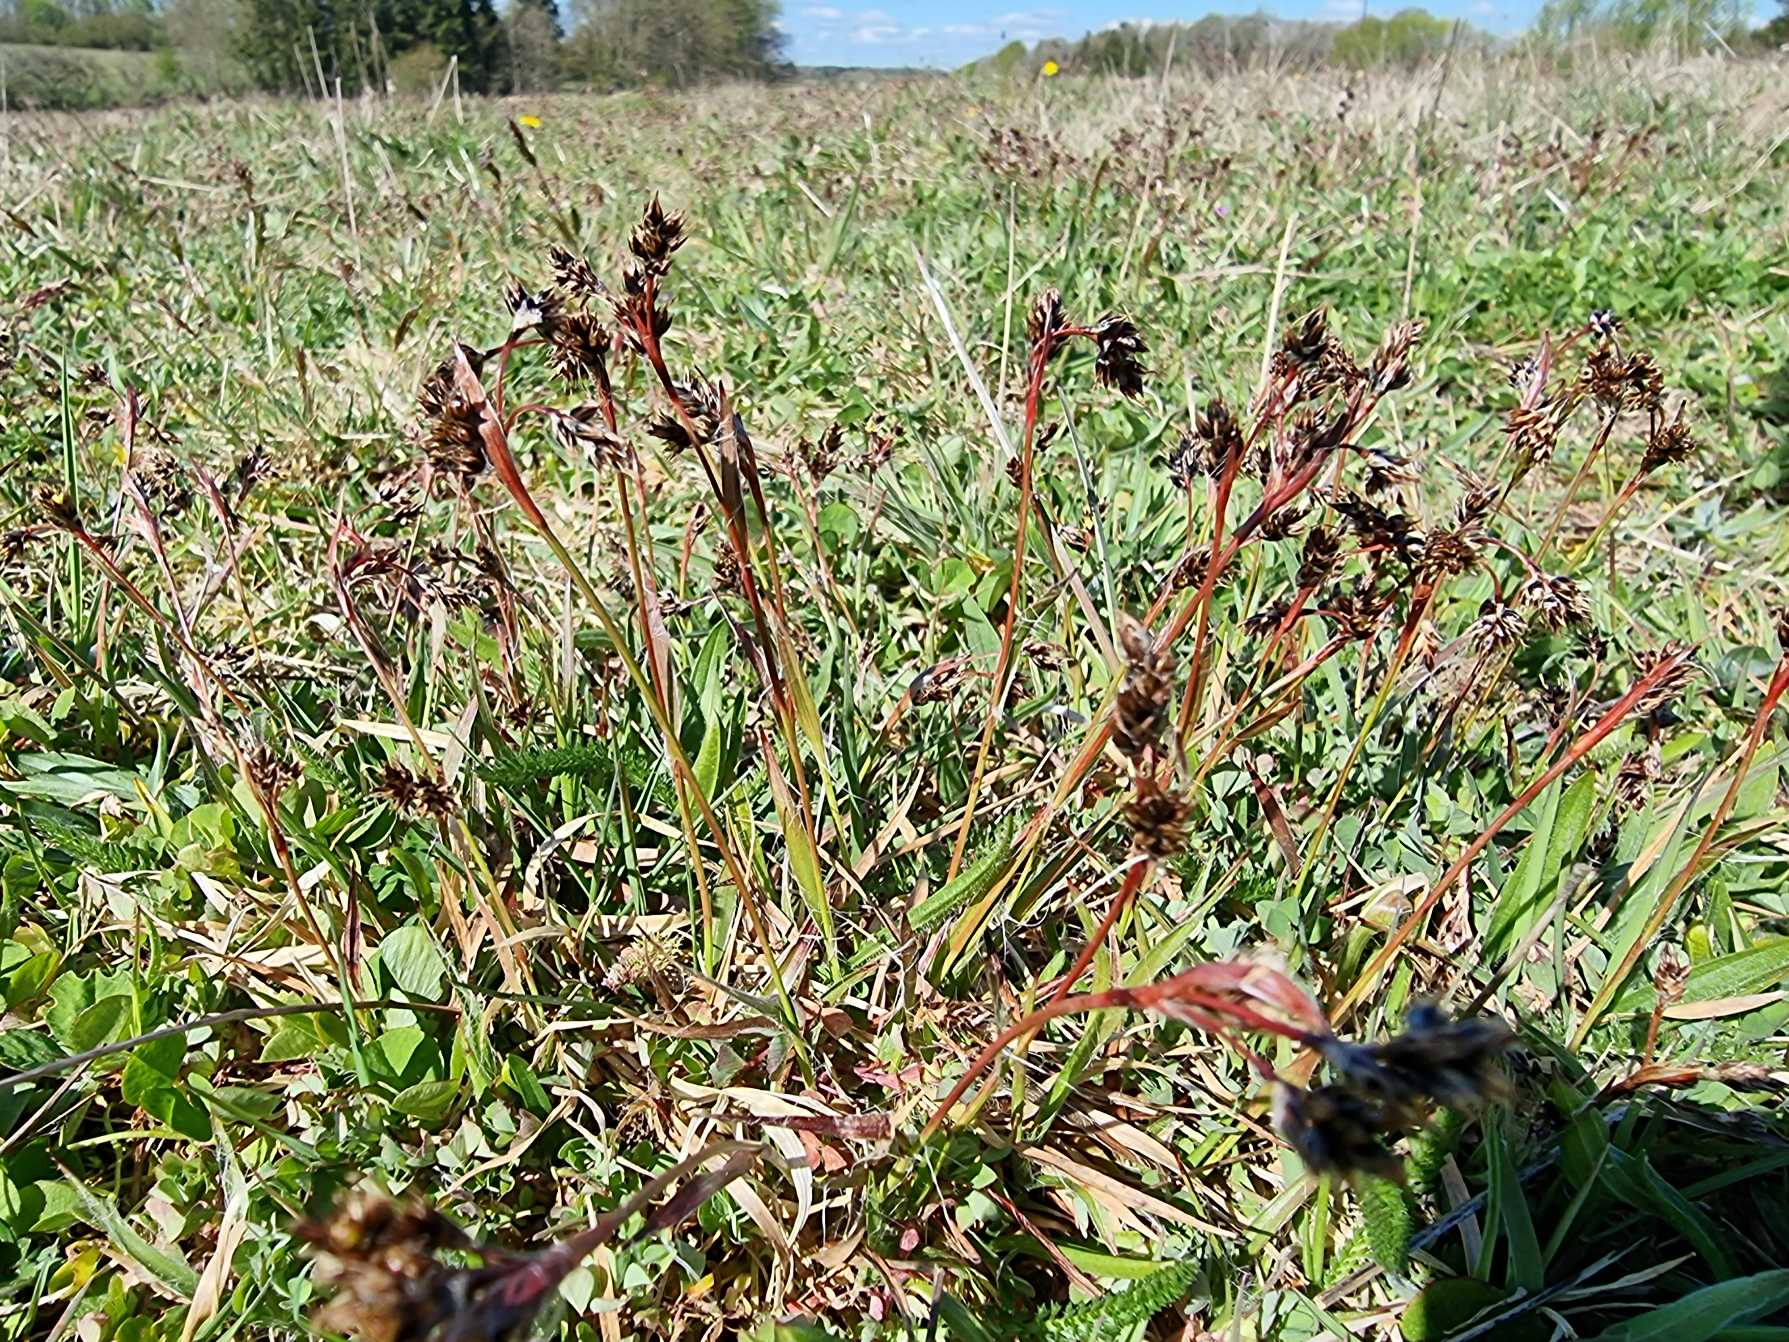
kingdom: Plantae
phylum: Tracheophyta
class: Liliopsida
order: Poales
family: Juncaceae
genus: Luzula
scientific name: Luzula campestris
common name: Mark-frytle
